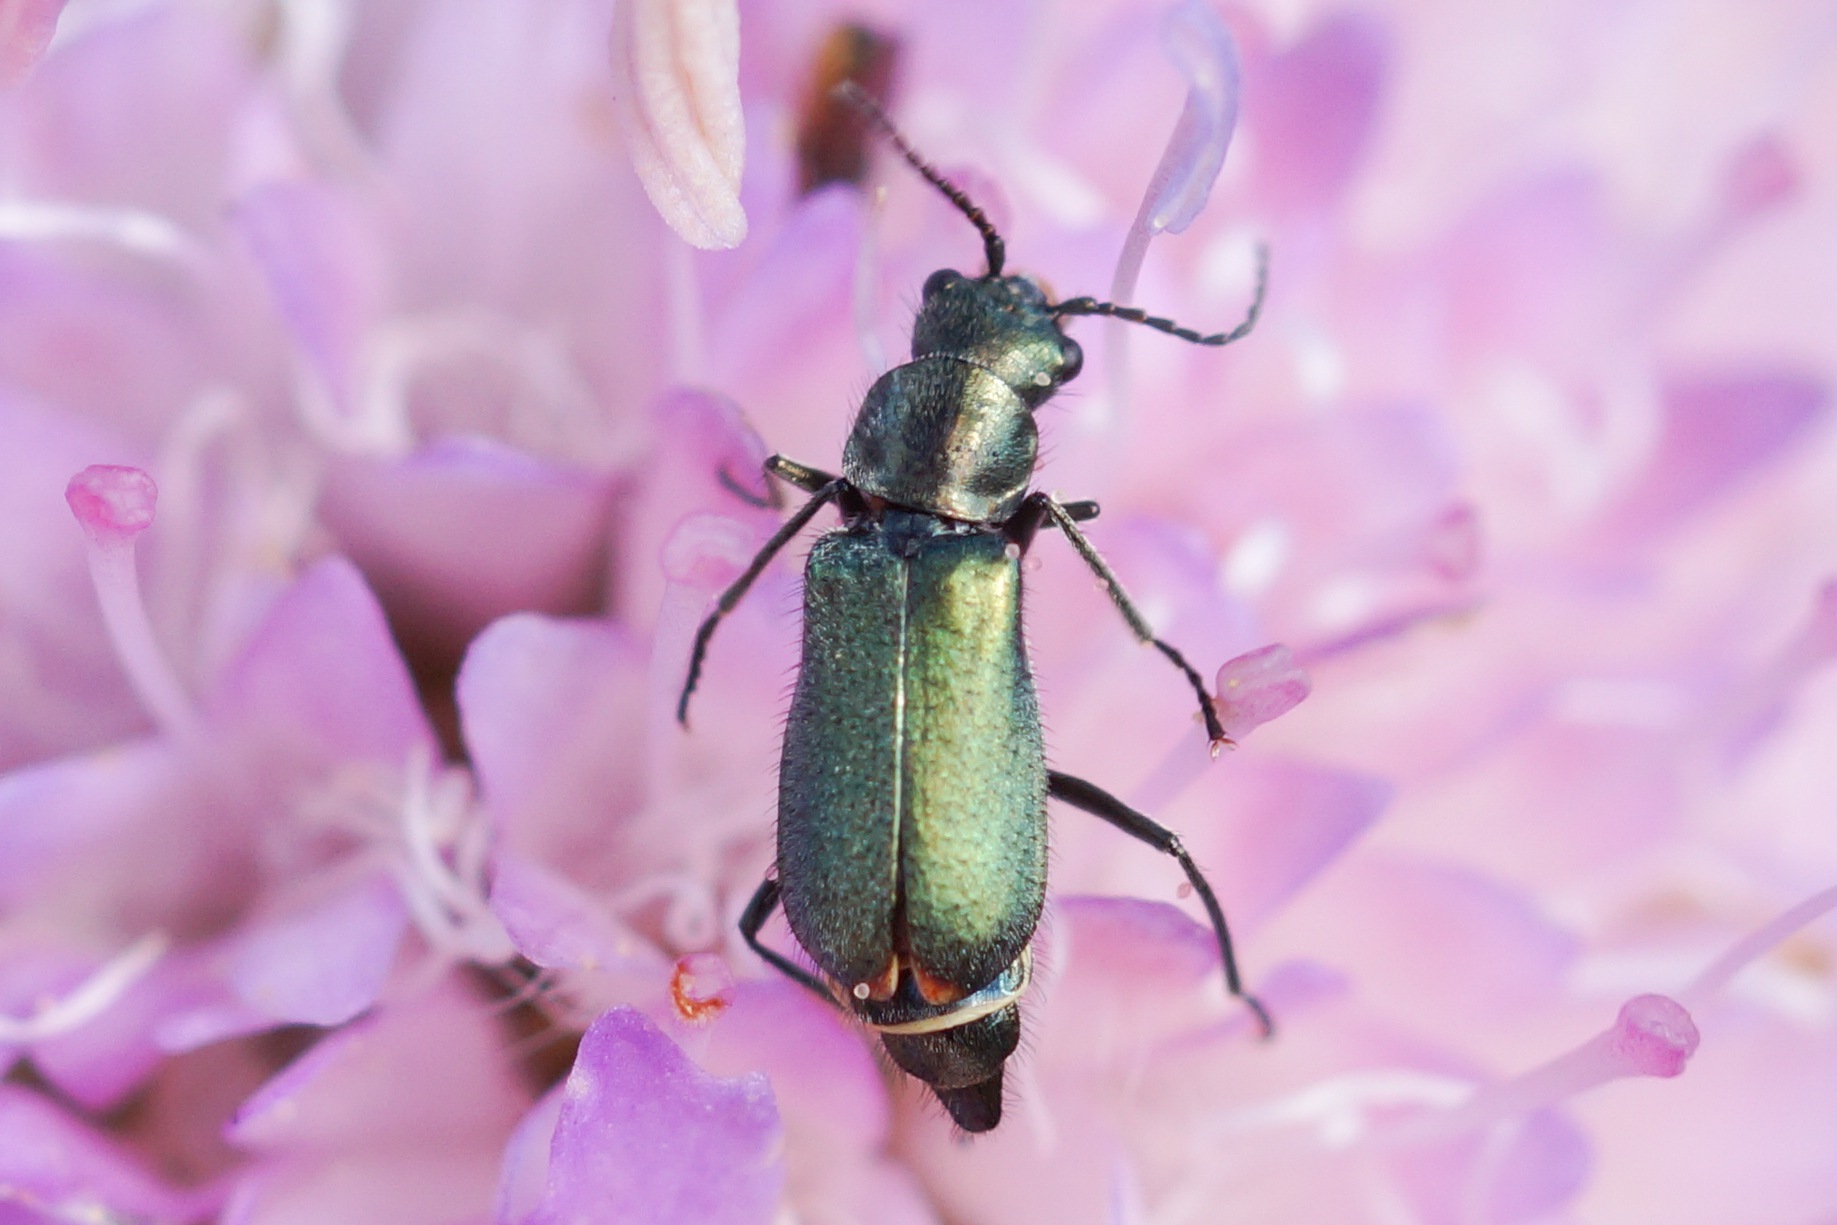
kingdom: Animalia
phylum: Arthropoda
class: Insecta
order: Coleoptera
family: Malachiidae
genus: Cordylepherus
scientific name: Cordylepherus viridis
